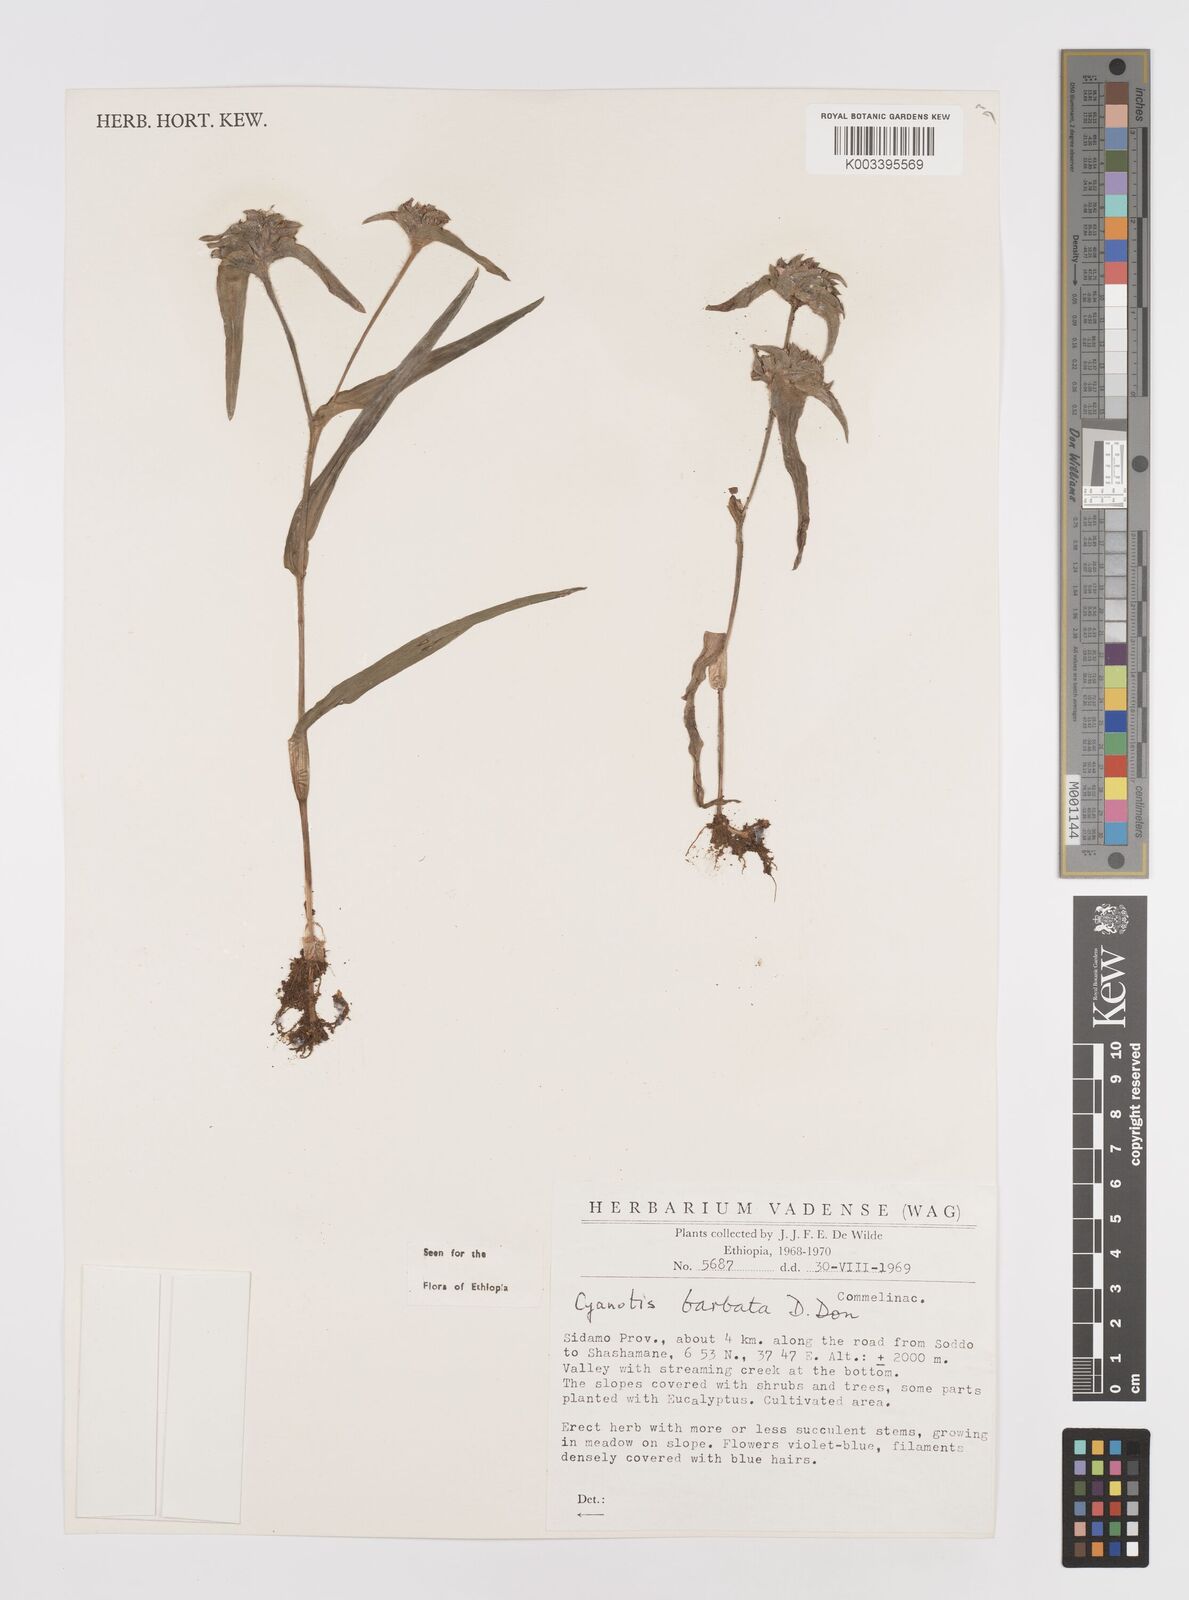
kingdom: Plantae
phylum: Tracheophyta
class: Liliopsida
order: Commelinales
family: Commelinaceae
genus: Cyanotis
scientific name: Cyanotis vaga
